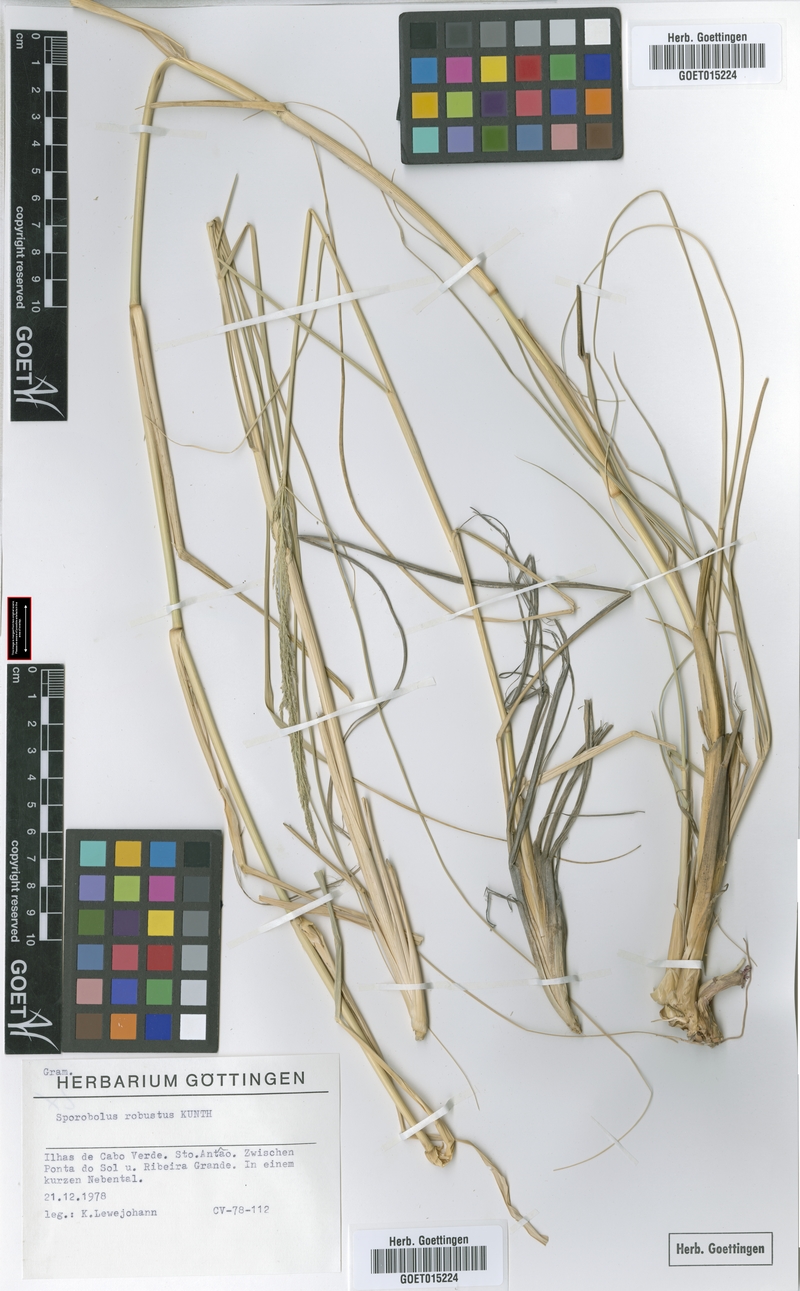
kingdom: Plantae
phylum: Tracheophyta
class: Liliopsida
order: Poales
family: Poaceae
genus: Sporobolus
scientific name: Sporobolus robustus
